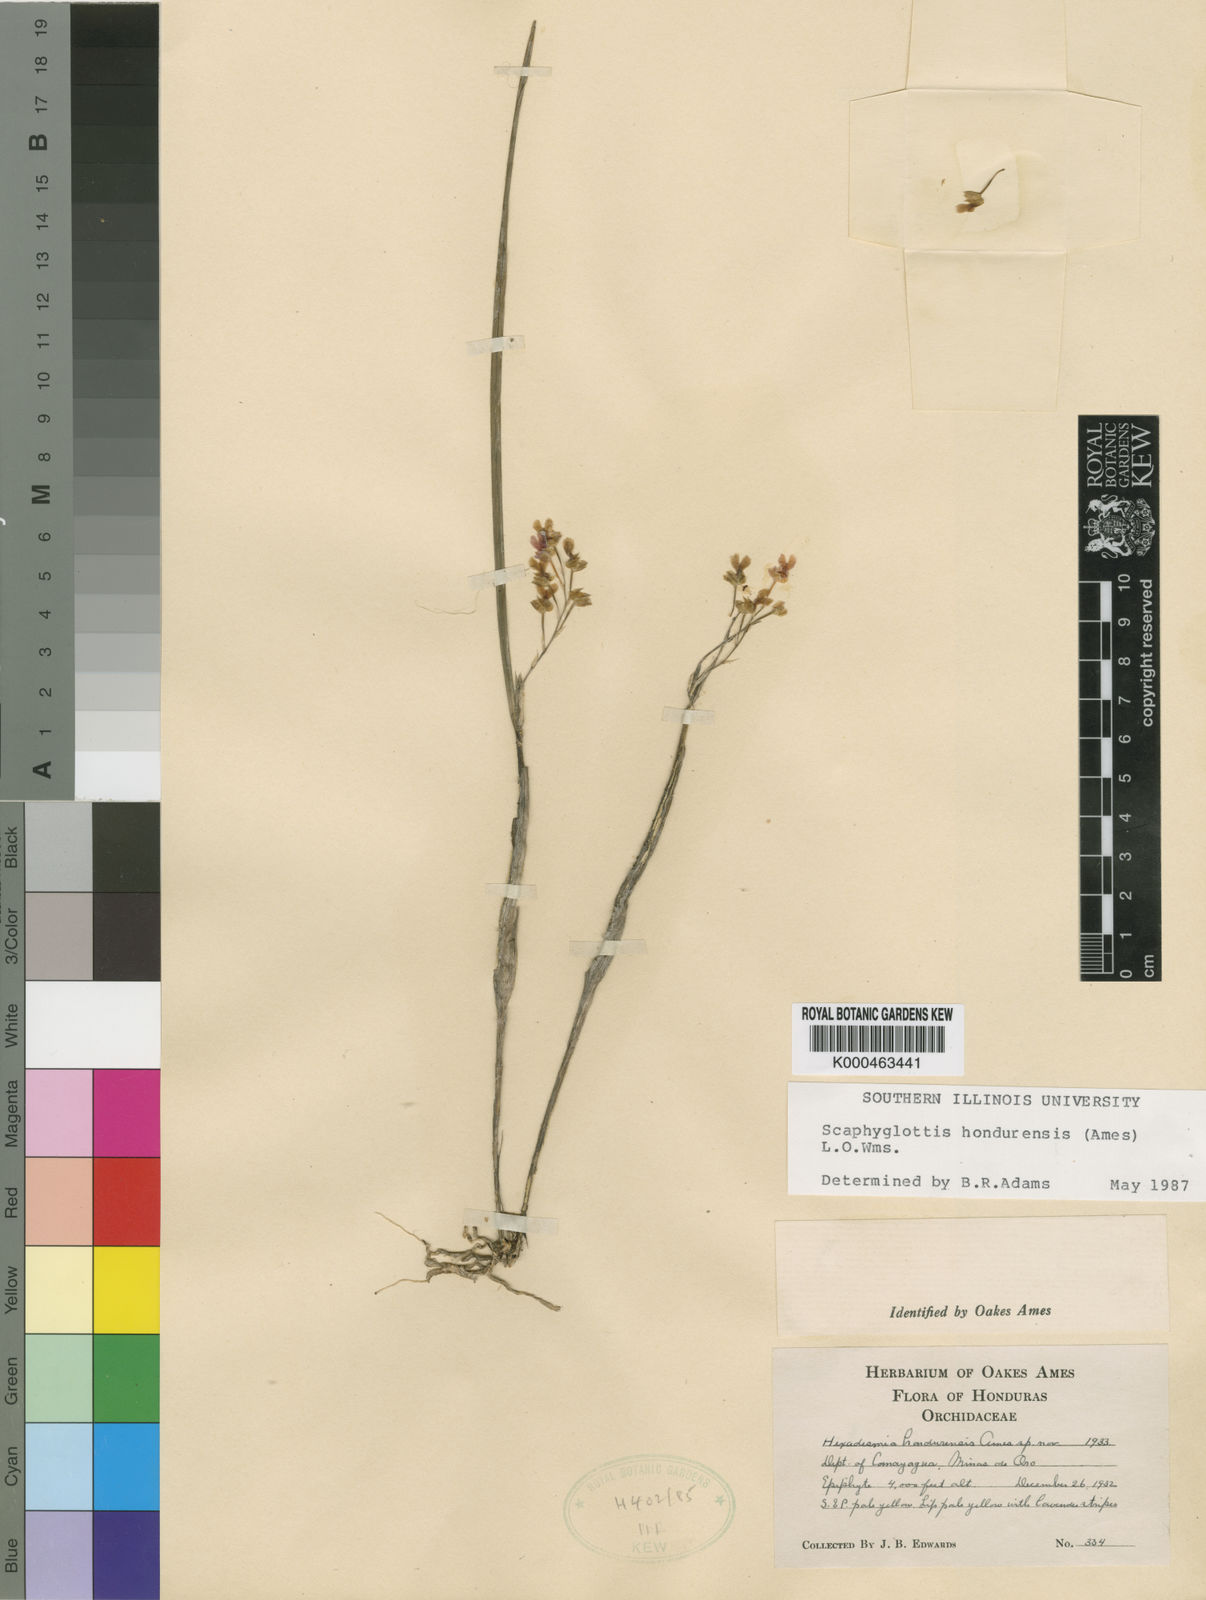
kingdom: Plantae
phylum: Tracheophyta
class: Liliopsida
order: Asparagales
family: Orchidaceae
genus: Scaphyglottis
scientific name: Scaphyglottis hondurensis
